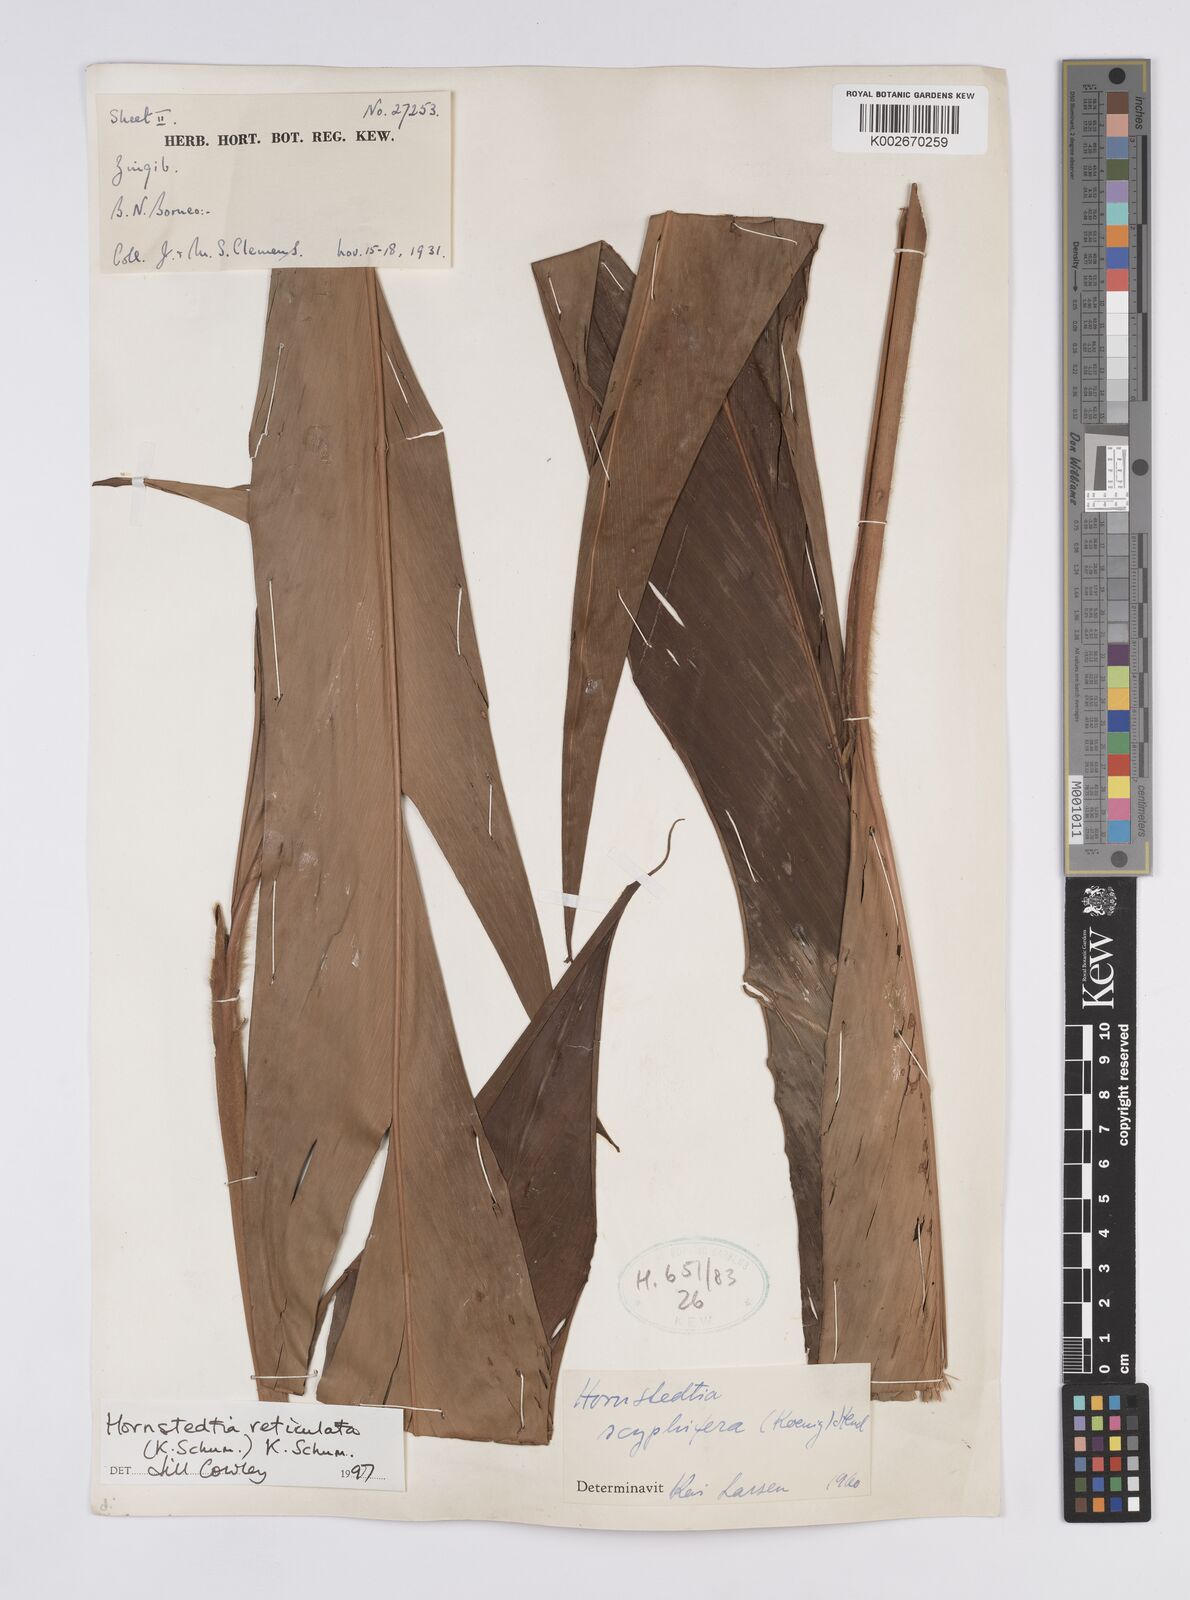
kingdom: Plantae
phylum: Tracheophyta
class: Liliopsida
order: Zingiberales
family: Zingiberaceae
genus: Hornstedtia
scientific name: Hornstedtia reticulata
